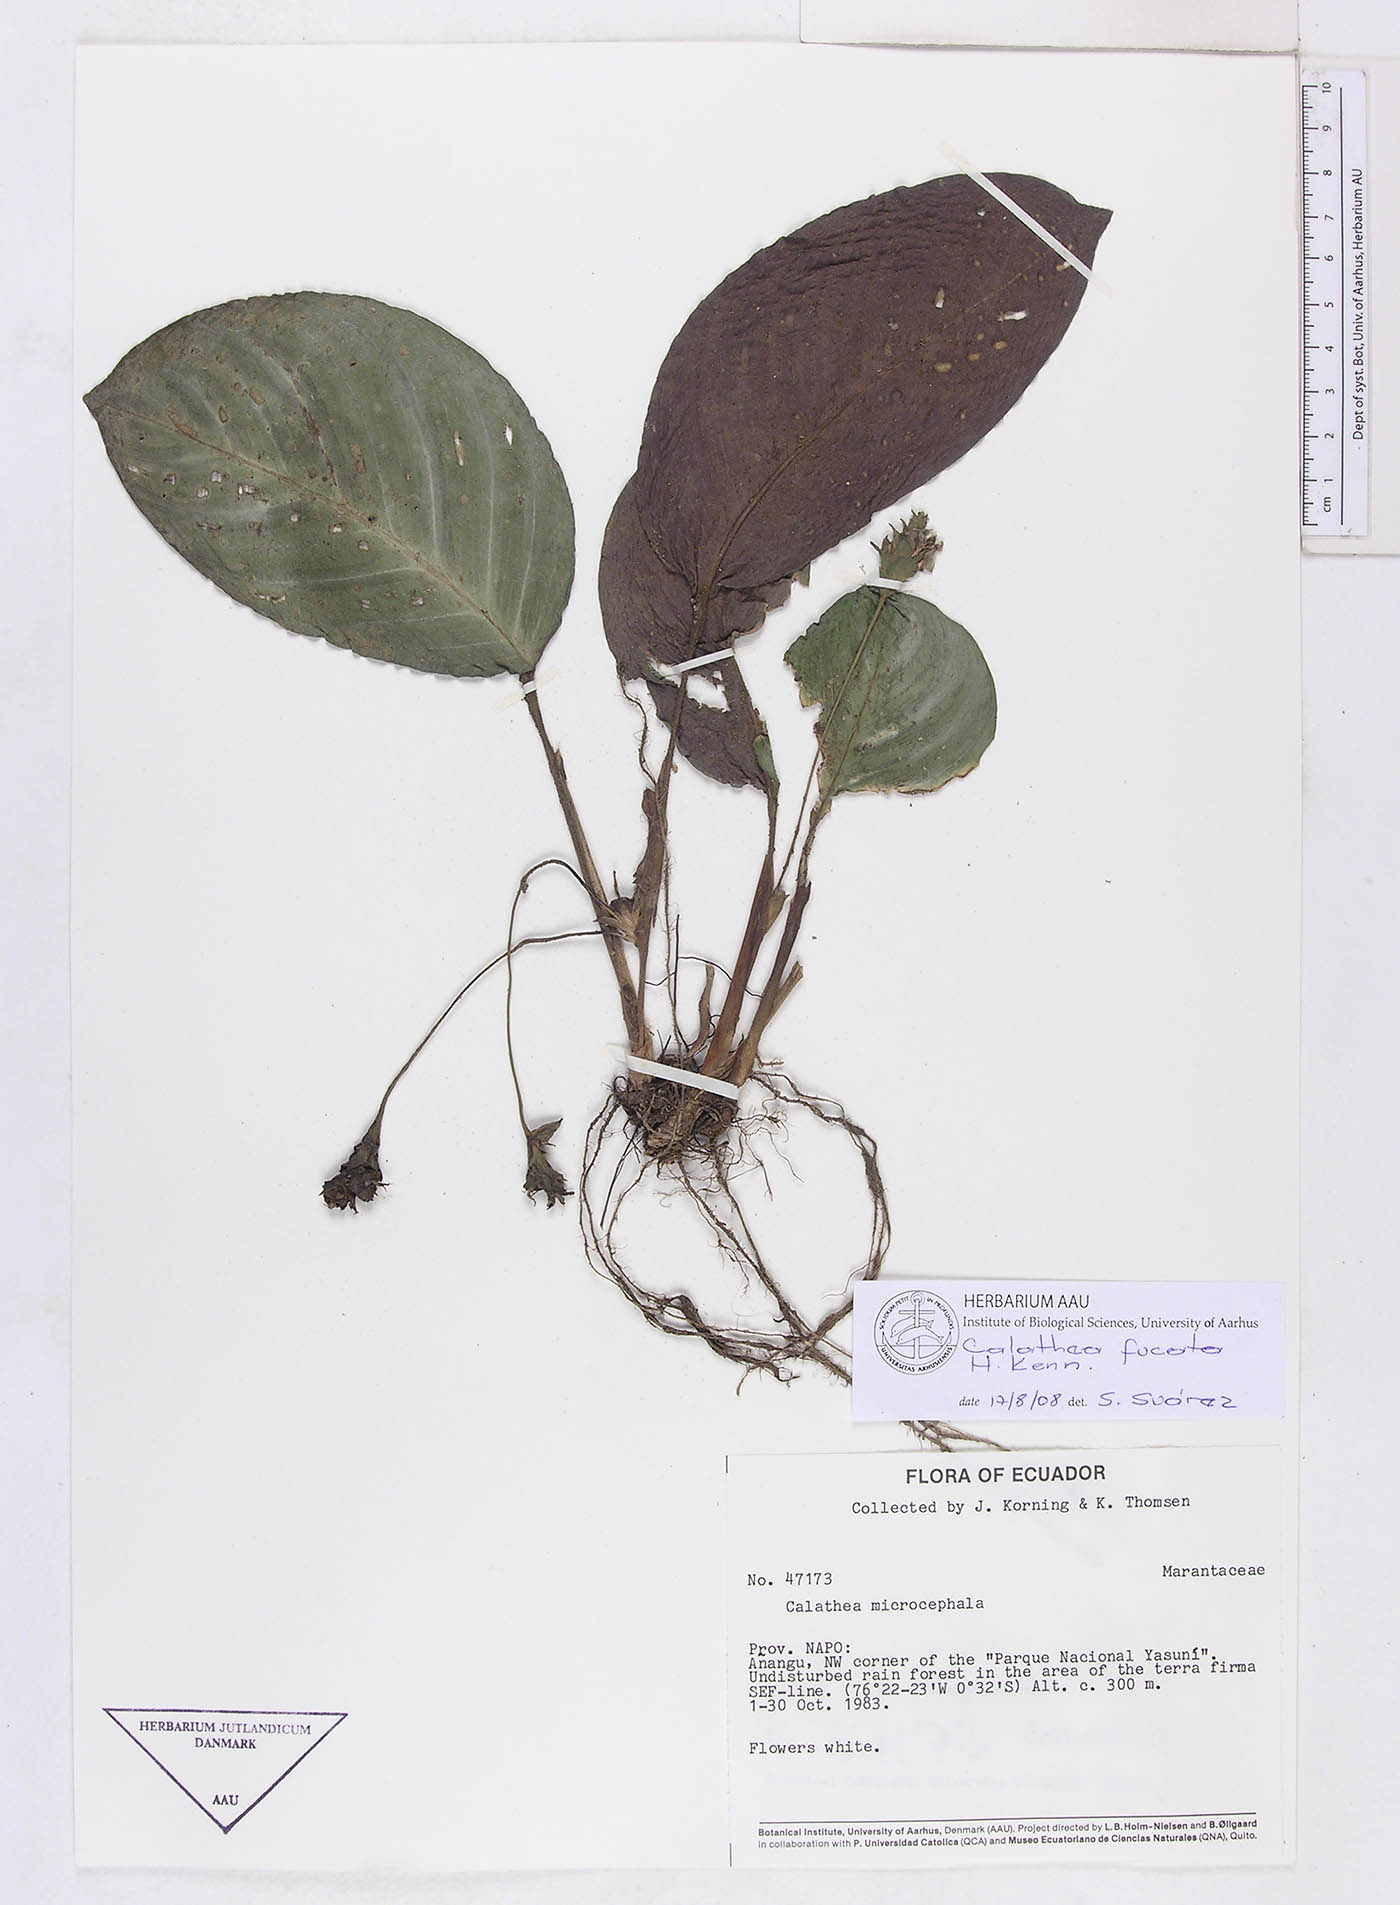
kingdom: Plantae
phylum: Tracheophyta
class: Liliopsida
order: Zingiberales
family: Marantaceae
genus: Goeppertia
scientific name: Goeppertia fucata
